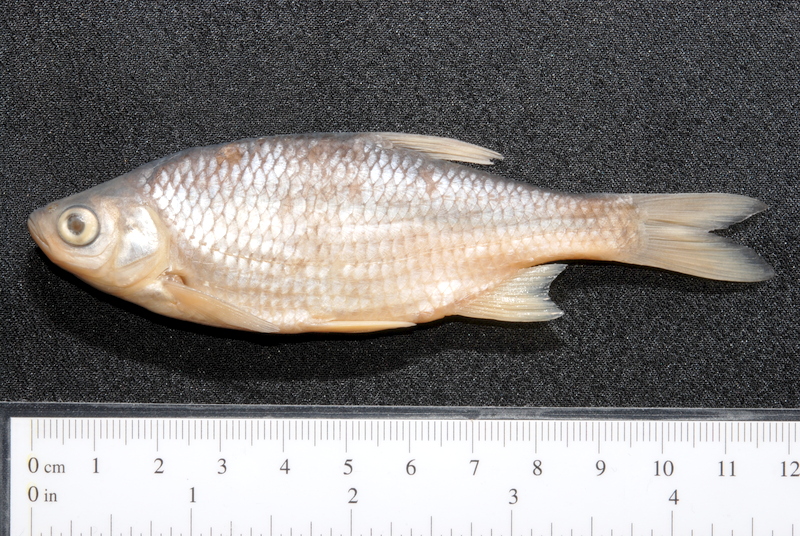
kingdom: Animalia
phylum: Chordata
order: Cypriniformes
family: Cyprinidae
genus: Scardinius
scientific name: Scardinius erythrophthalmus
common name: Rudd
